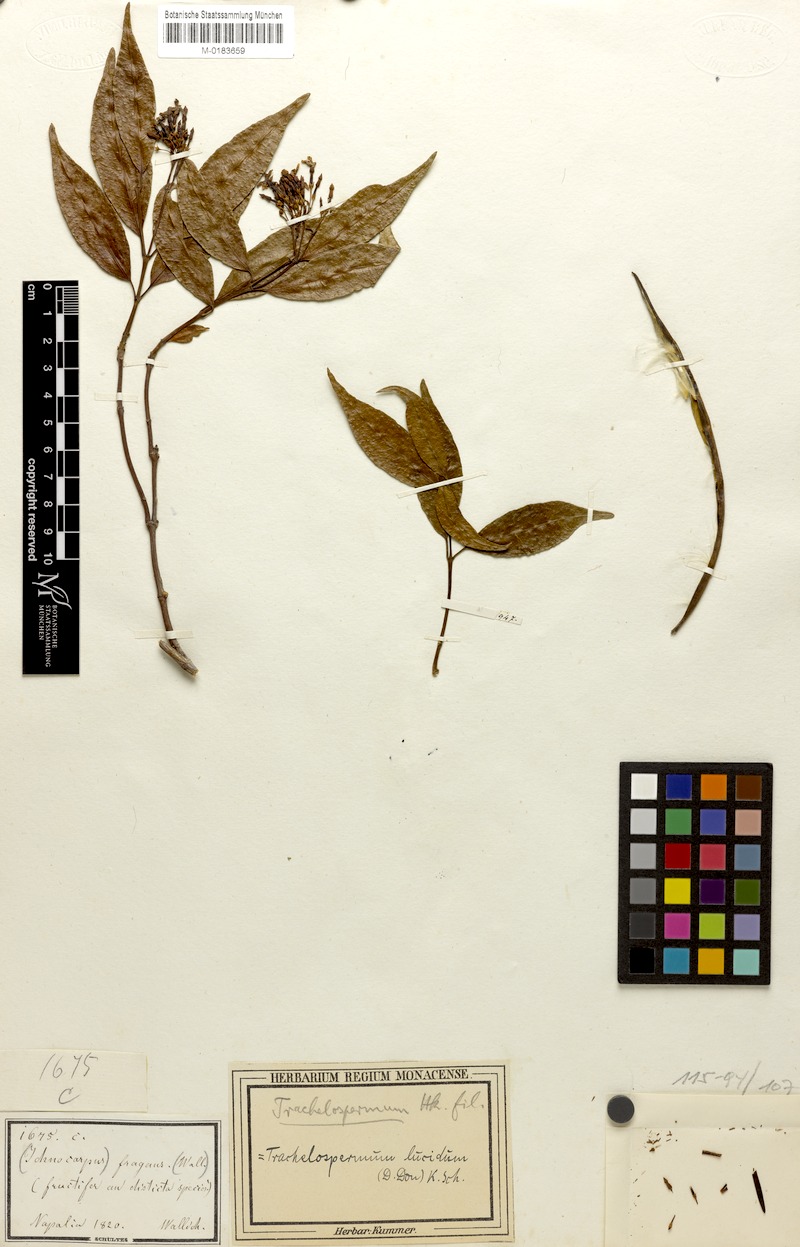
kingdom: Plantae
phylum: Tracheophyta
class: Magnoliopsida
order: Gentianales
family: Apocynaceae
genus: Trachelospermum
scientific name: Trachelospermum lucidum
